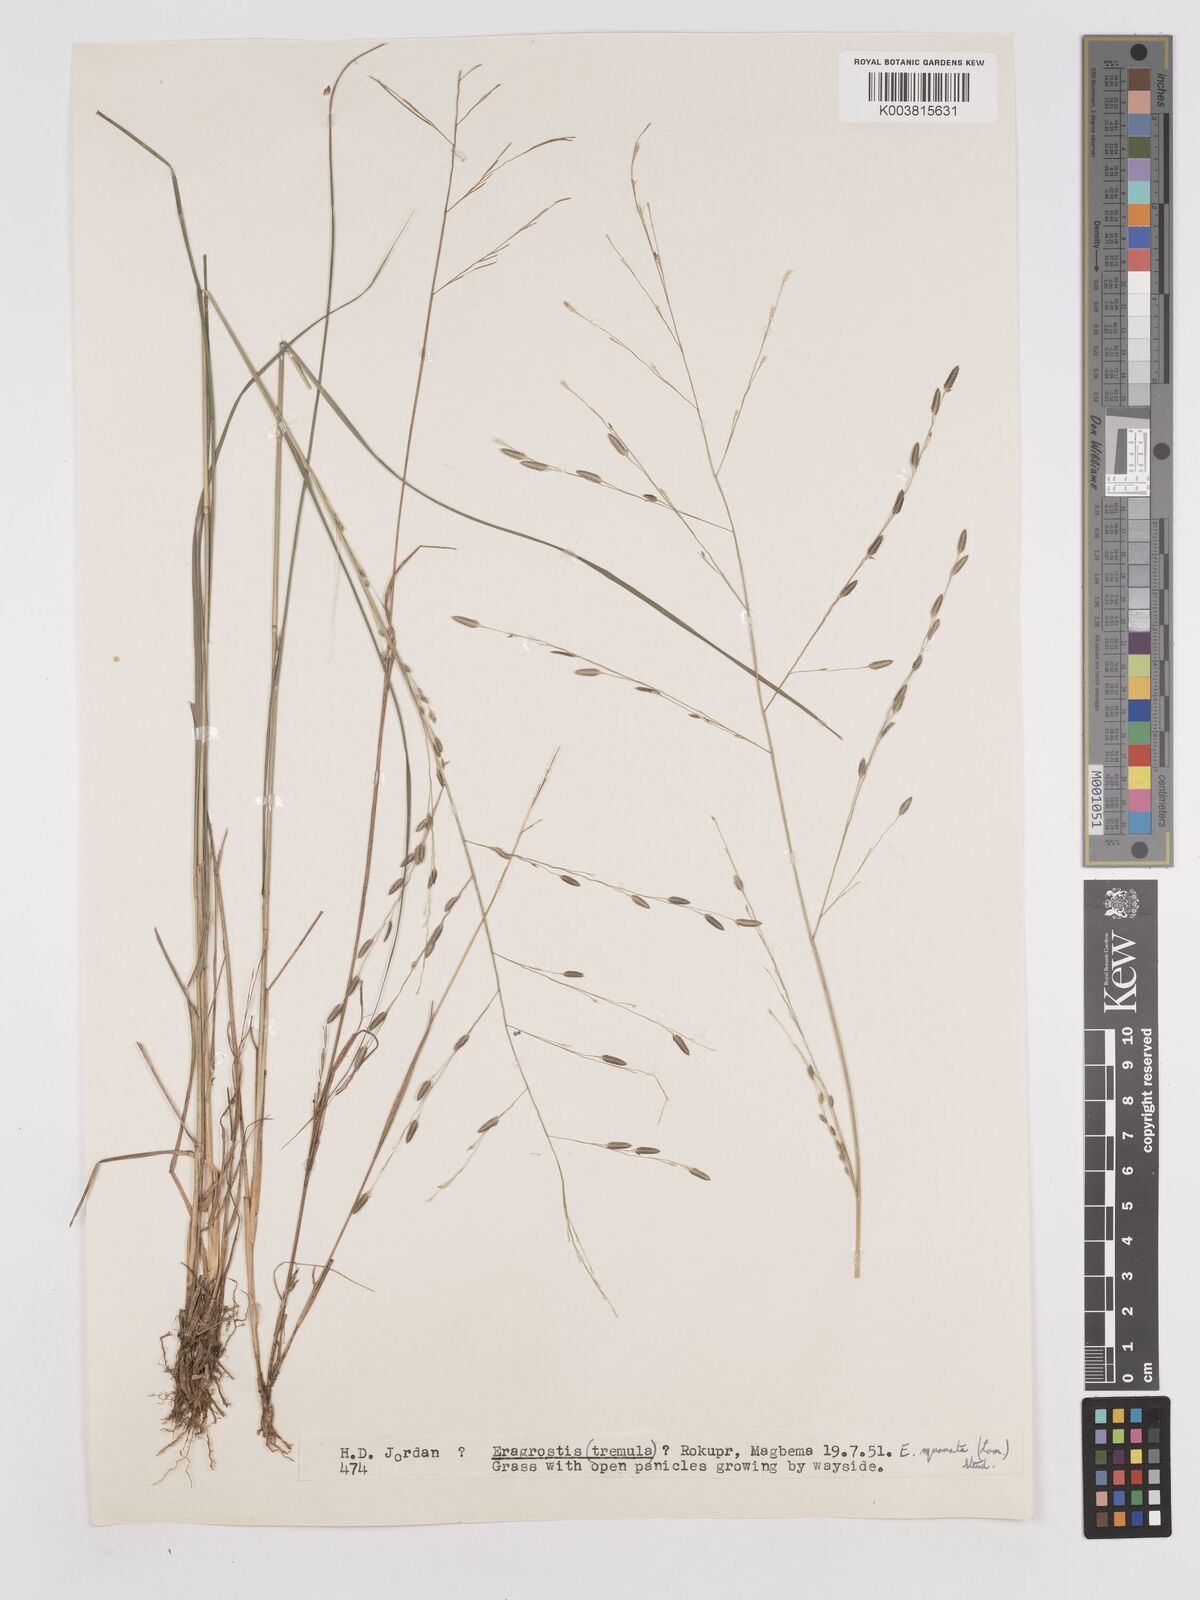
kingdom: Plantae
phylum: Tracheophyta
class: Liliopsida
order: Poales
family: Poaceae
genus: Eragrostis
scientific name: Eragrostis squamata
